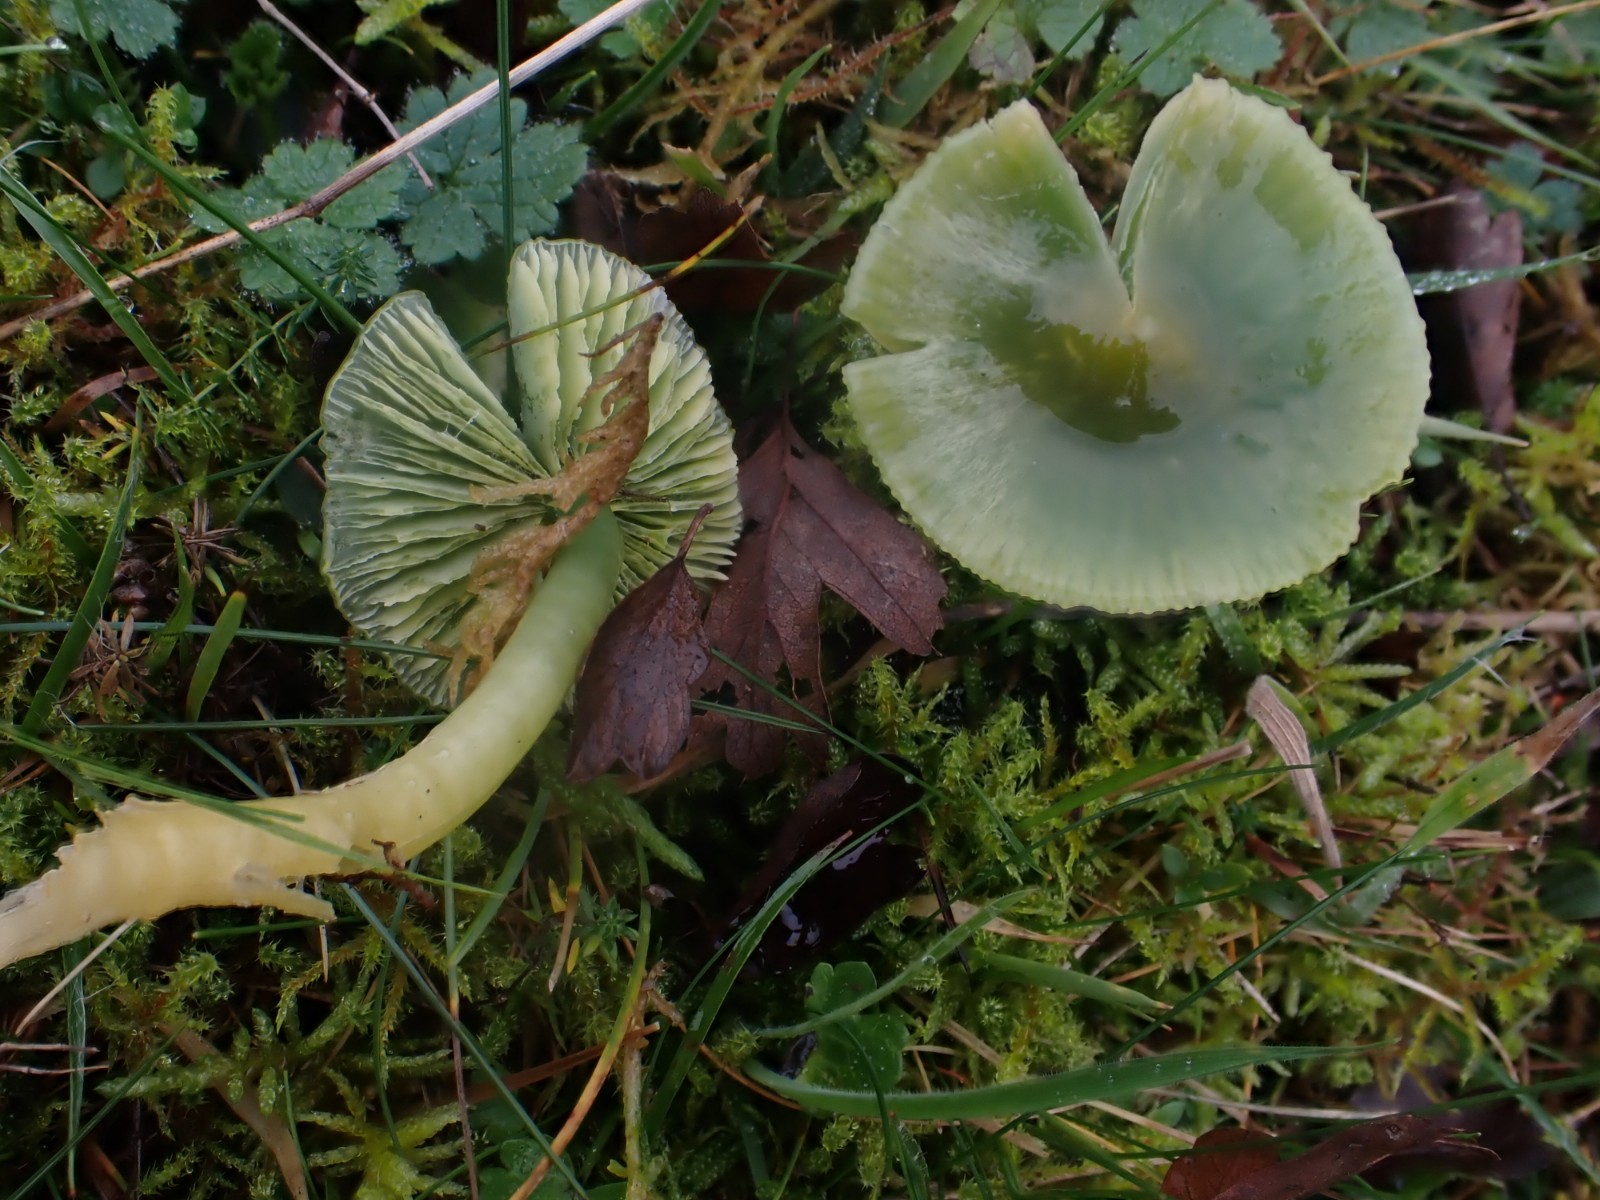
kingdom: Fungi
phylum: Basidiomycota
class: Agaricomycetes
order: Agaricales
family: Hygrophoraceae
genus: Gliophorus
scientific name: Gliophorus psittacinus
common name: papegøje-vokshat
